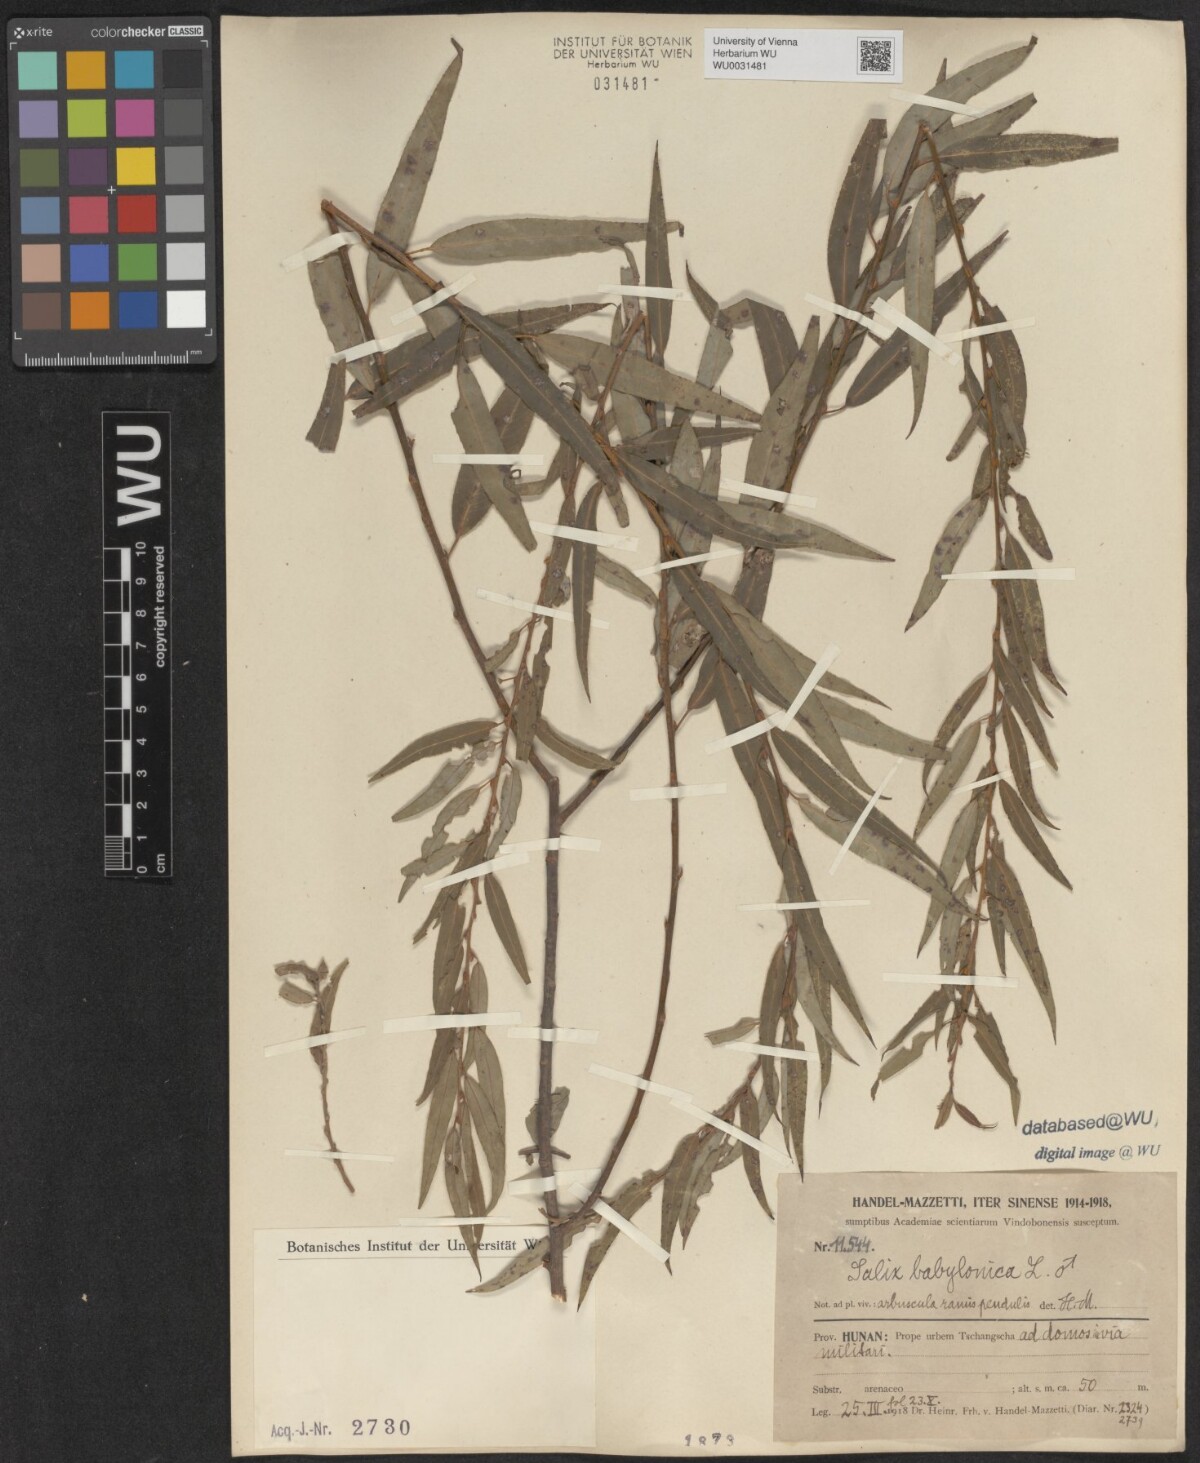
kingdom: Plantae
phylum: Tracheophyta
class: Magnoliopsida
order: Malpighiales
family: Salicaceae
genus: Salix
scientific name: Salix babylonica
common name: Weeping willow
